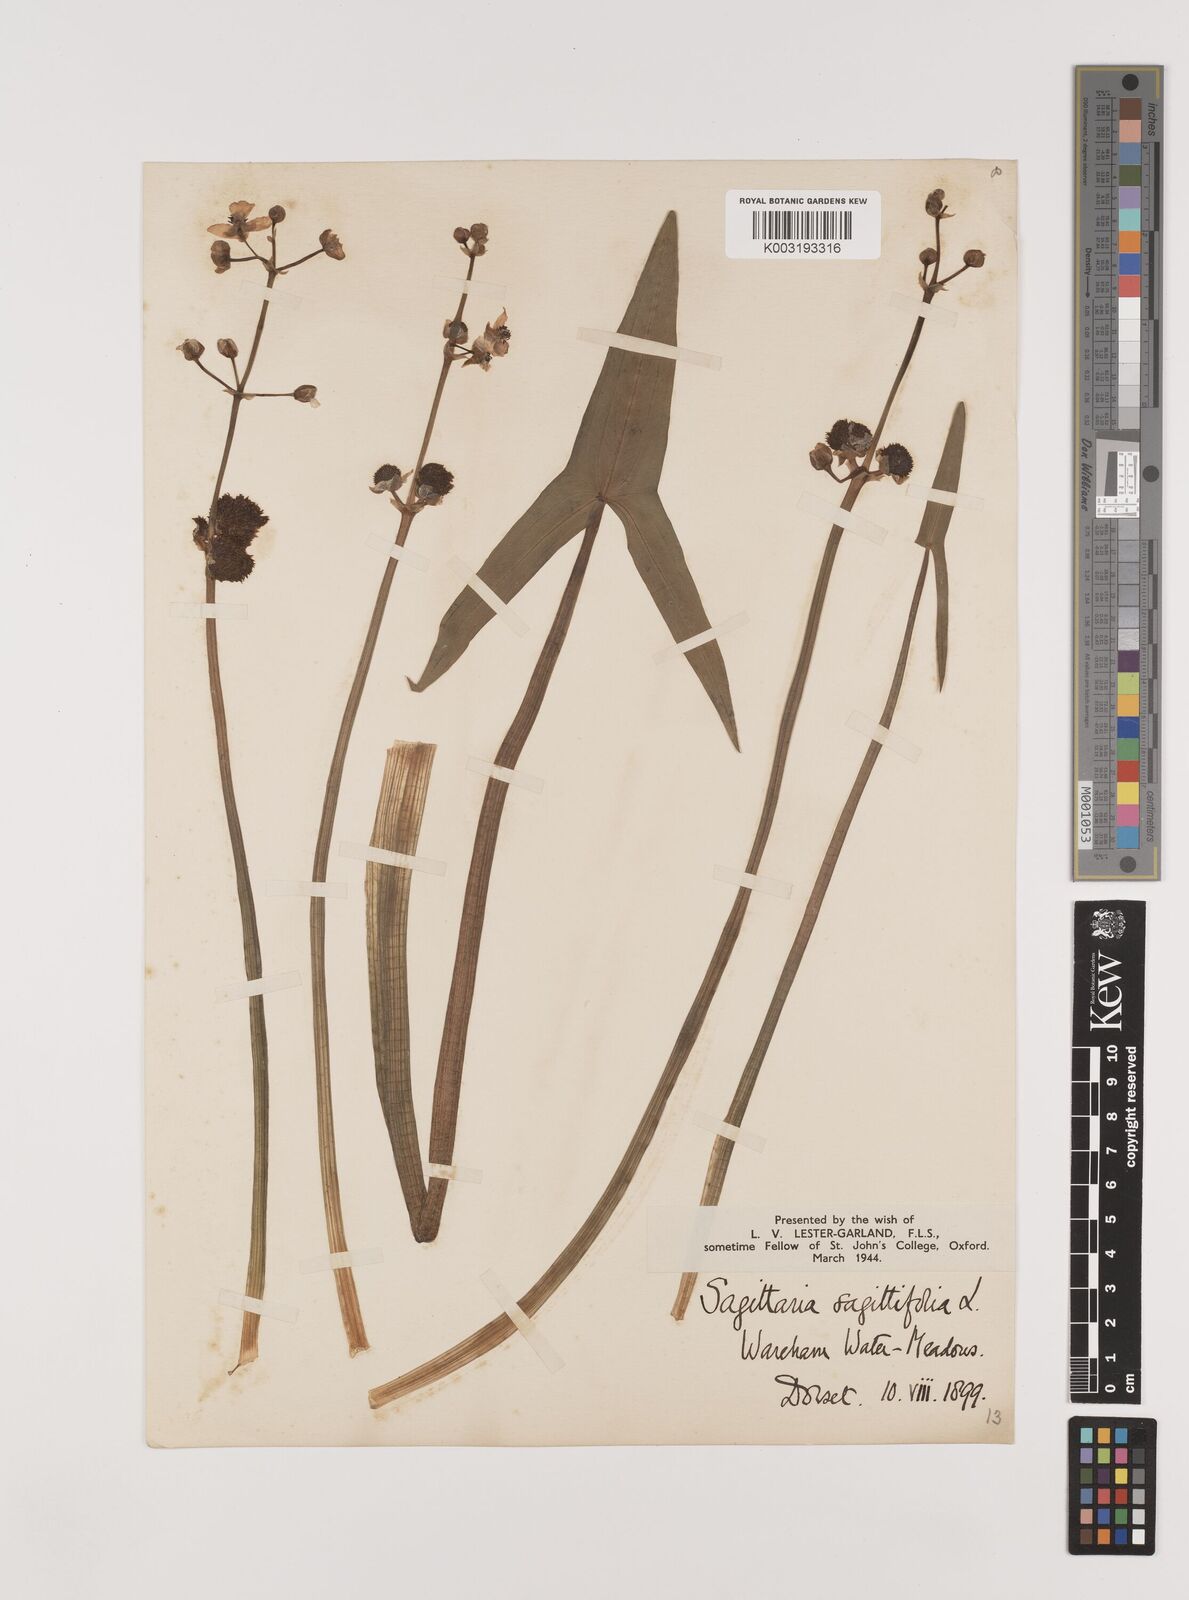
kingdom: Plantae
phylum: Tracheophyta
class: Liliopsida
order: Alismatales
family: Alismataceae
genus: Sagittaria
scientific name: Sagittaria sagittifolia
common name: Arrowhead
